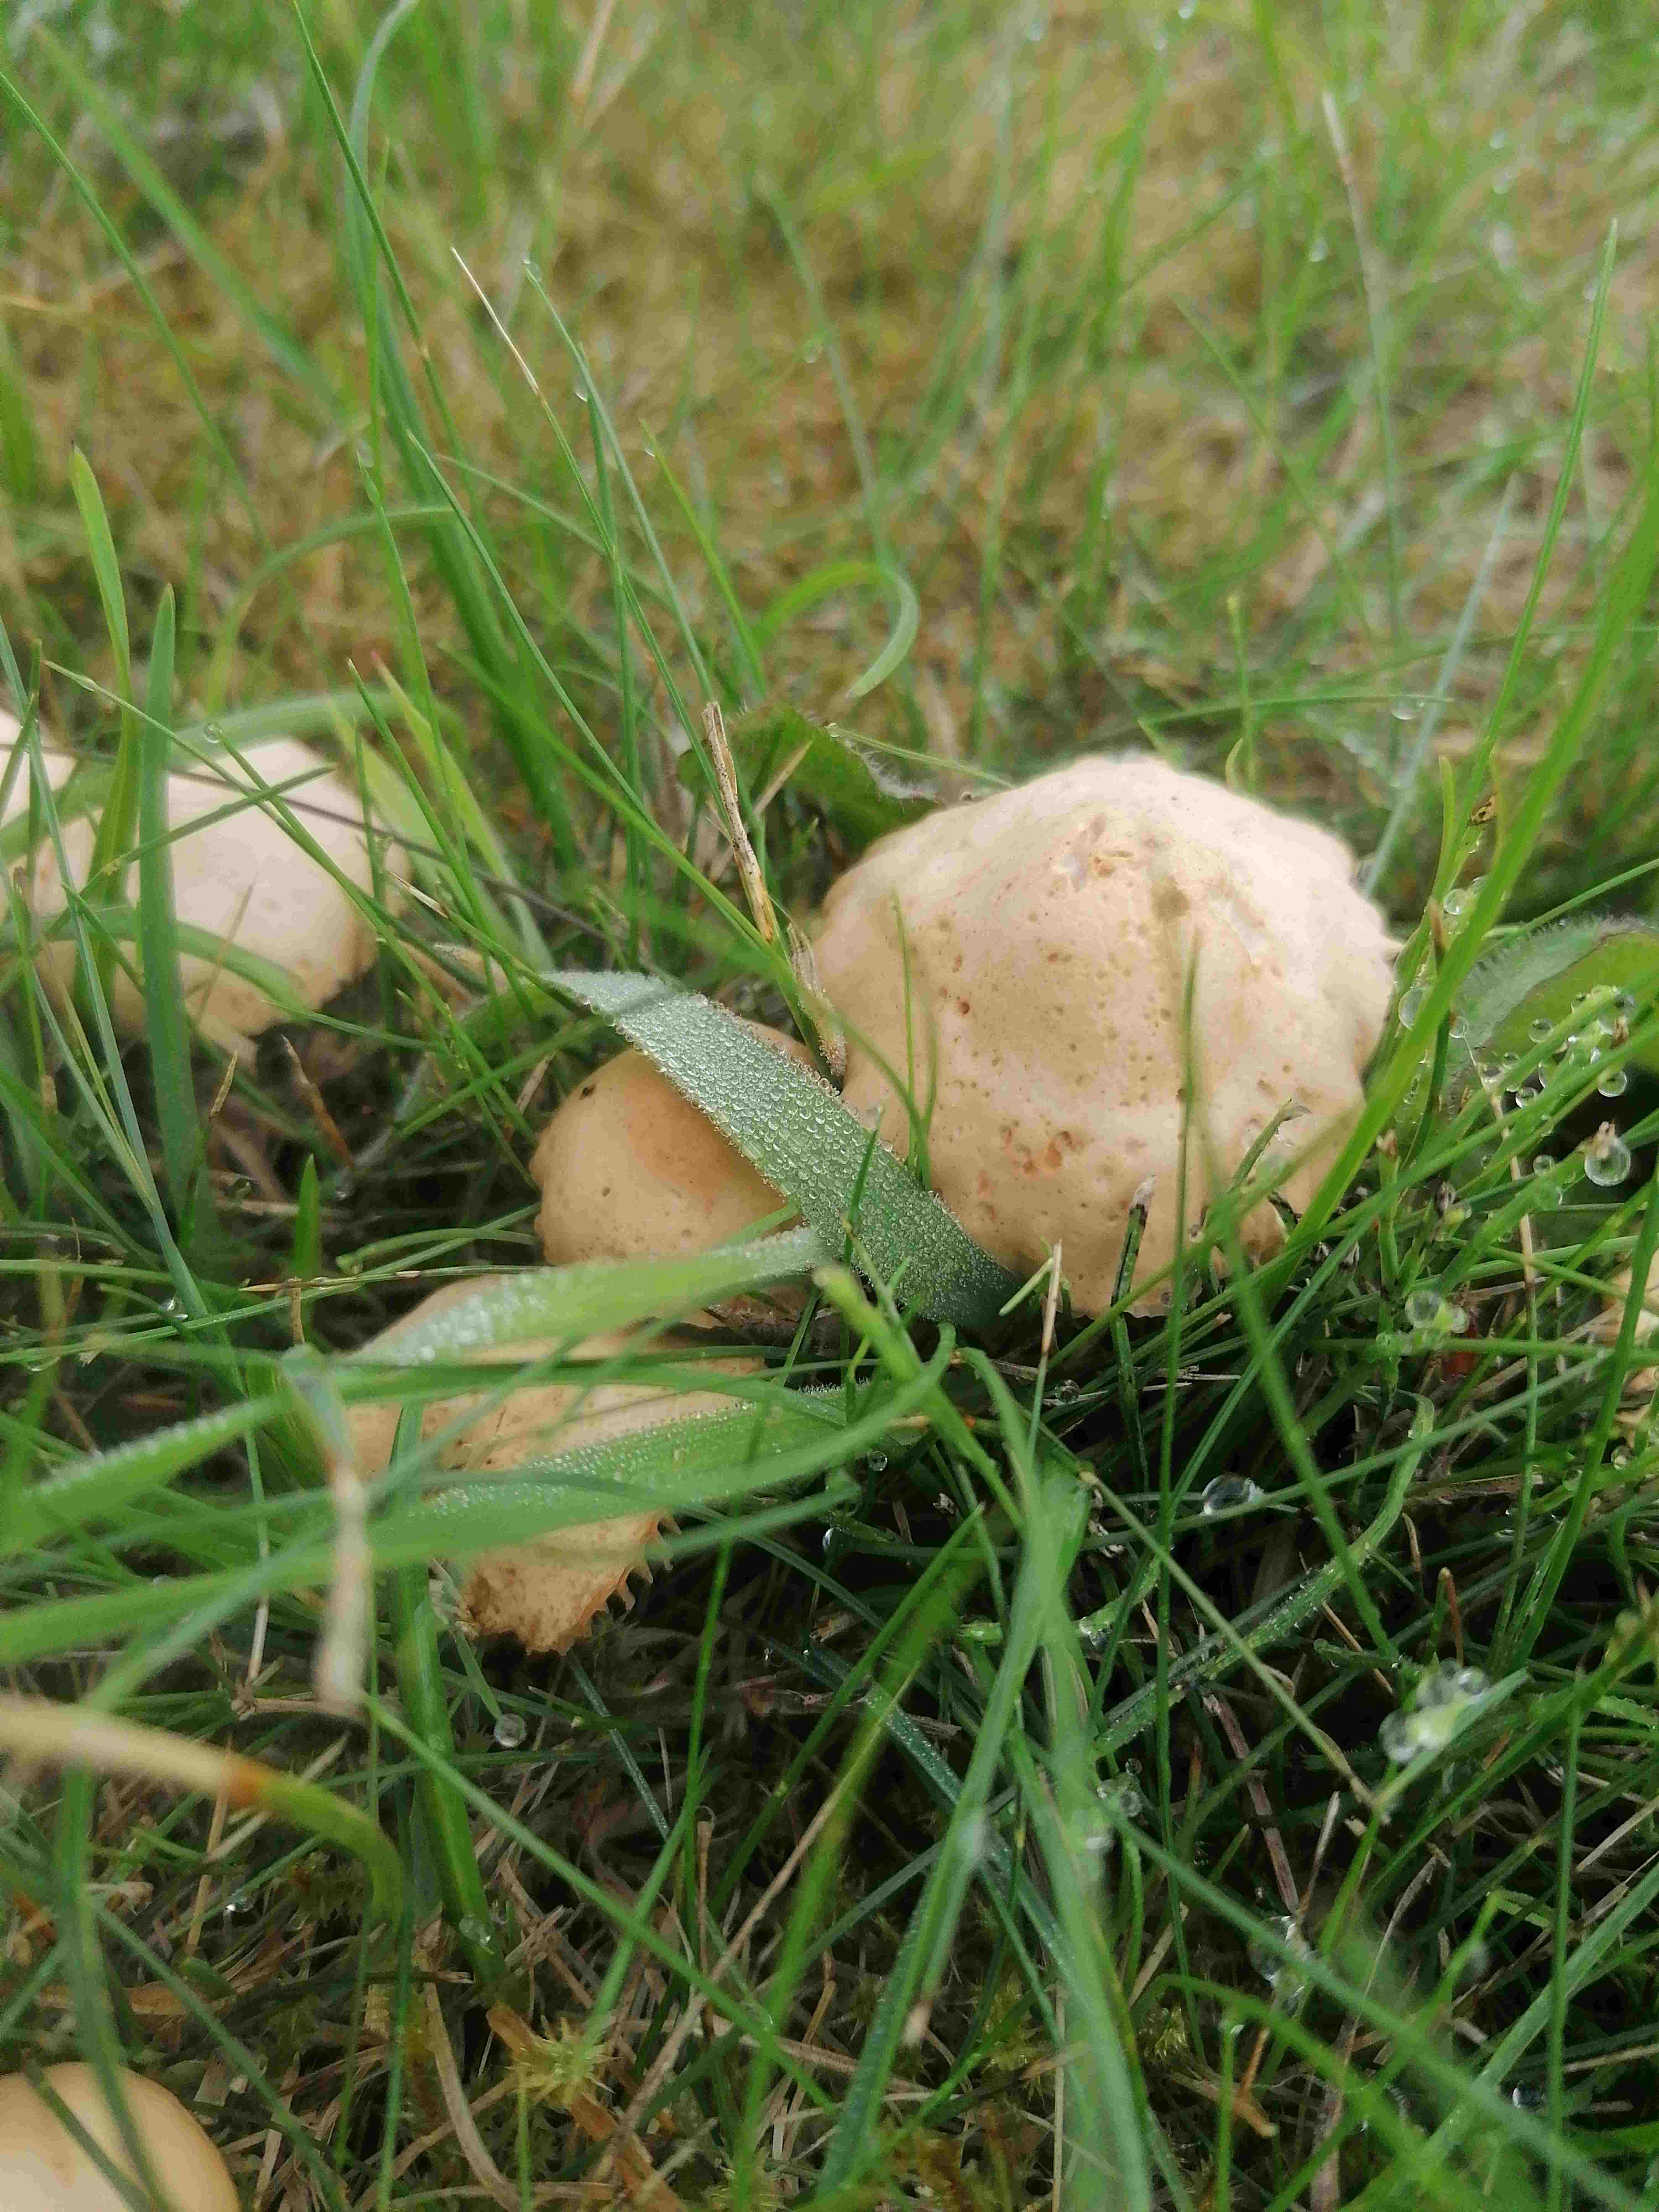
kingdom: Fungi
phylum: Basidiomycota
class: Agaricomycetes
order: Agaricales
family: Marasmiaceae
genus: Marasmius
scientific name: Marasmius oreades
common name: elledans-bruskhat
